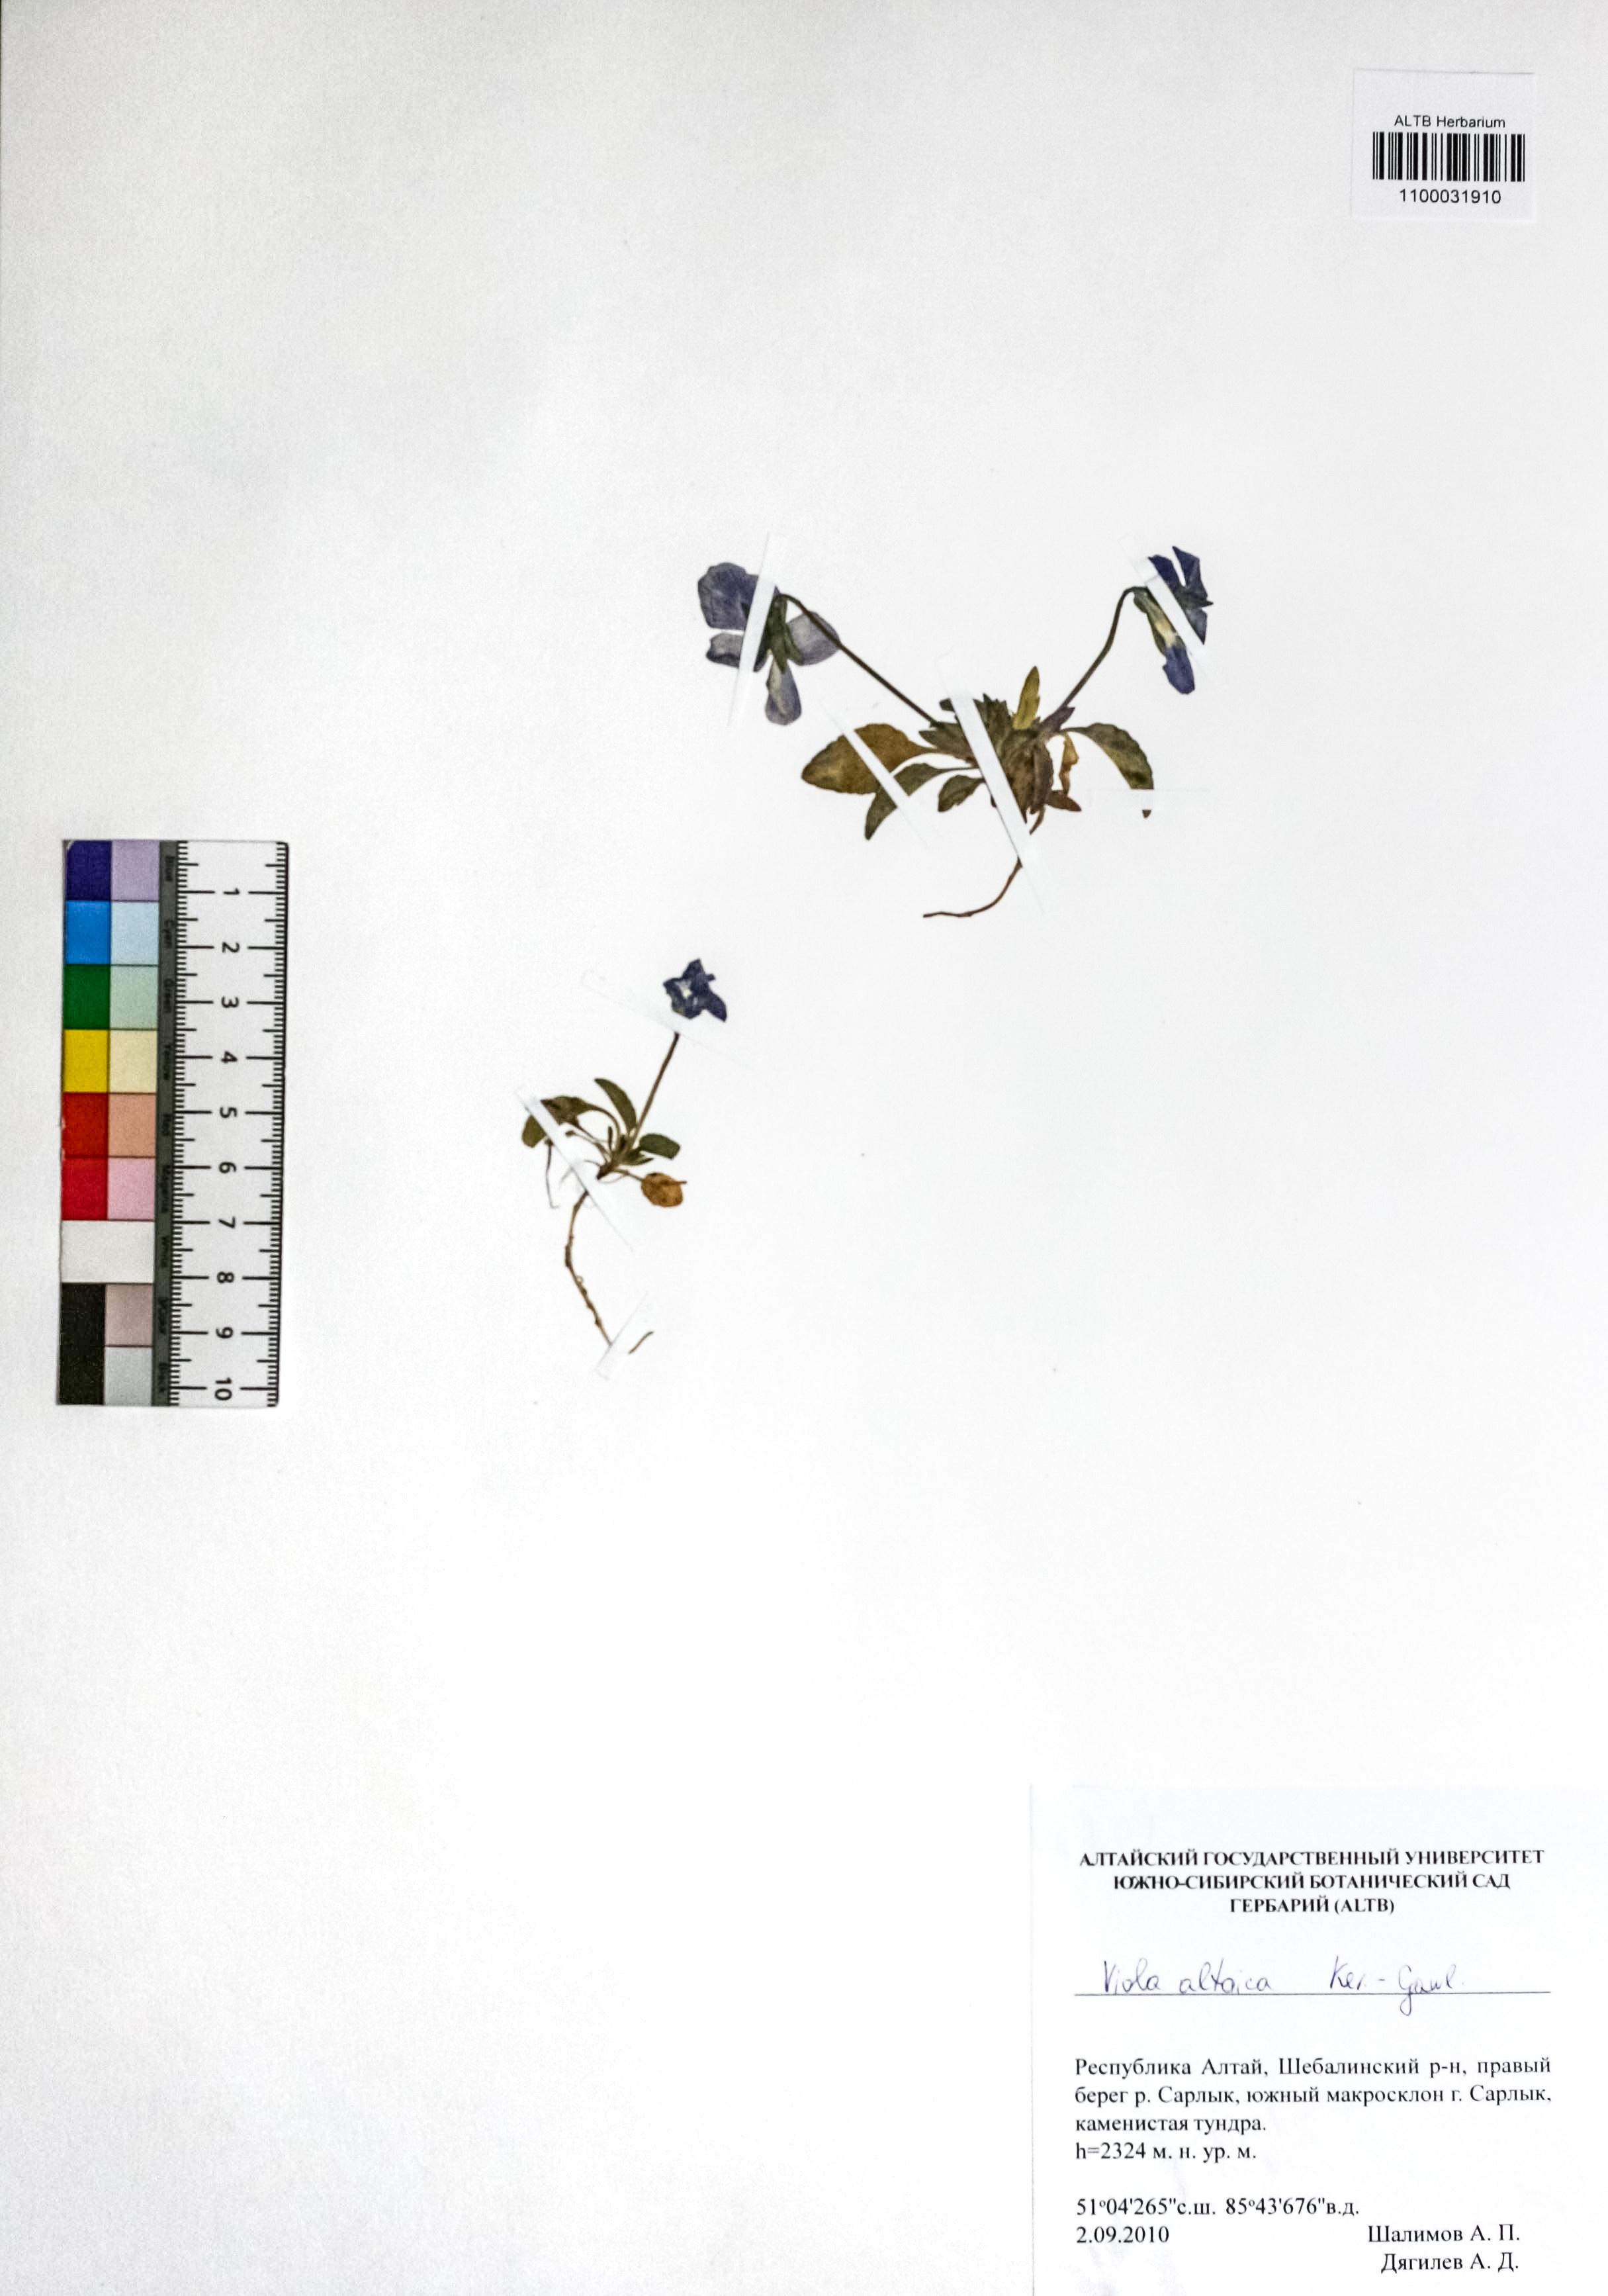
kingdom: Plantae
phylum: Tracheophyta
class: Magnoliopsida
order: Malpighiales
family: Violaceae
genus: Viola
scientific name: Viola altaica
